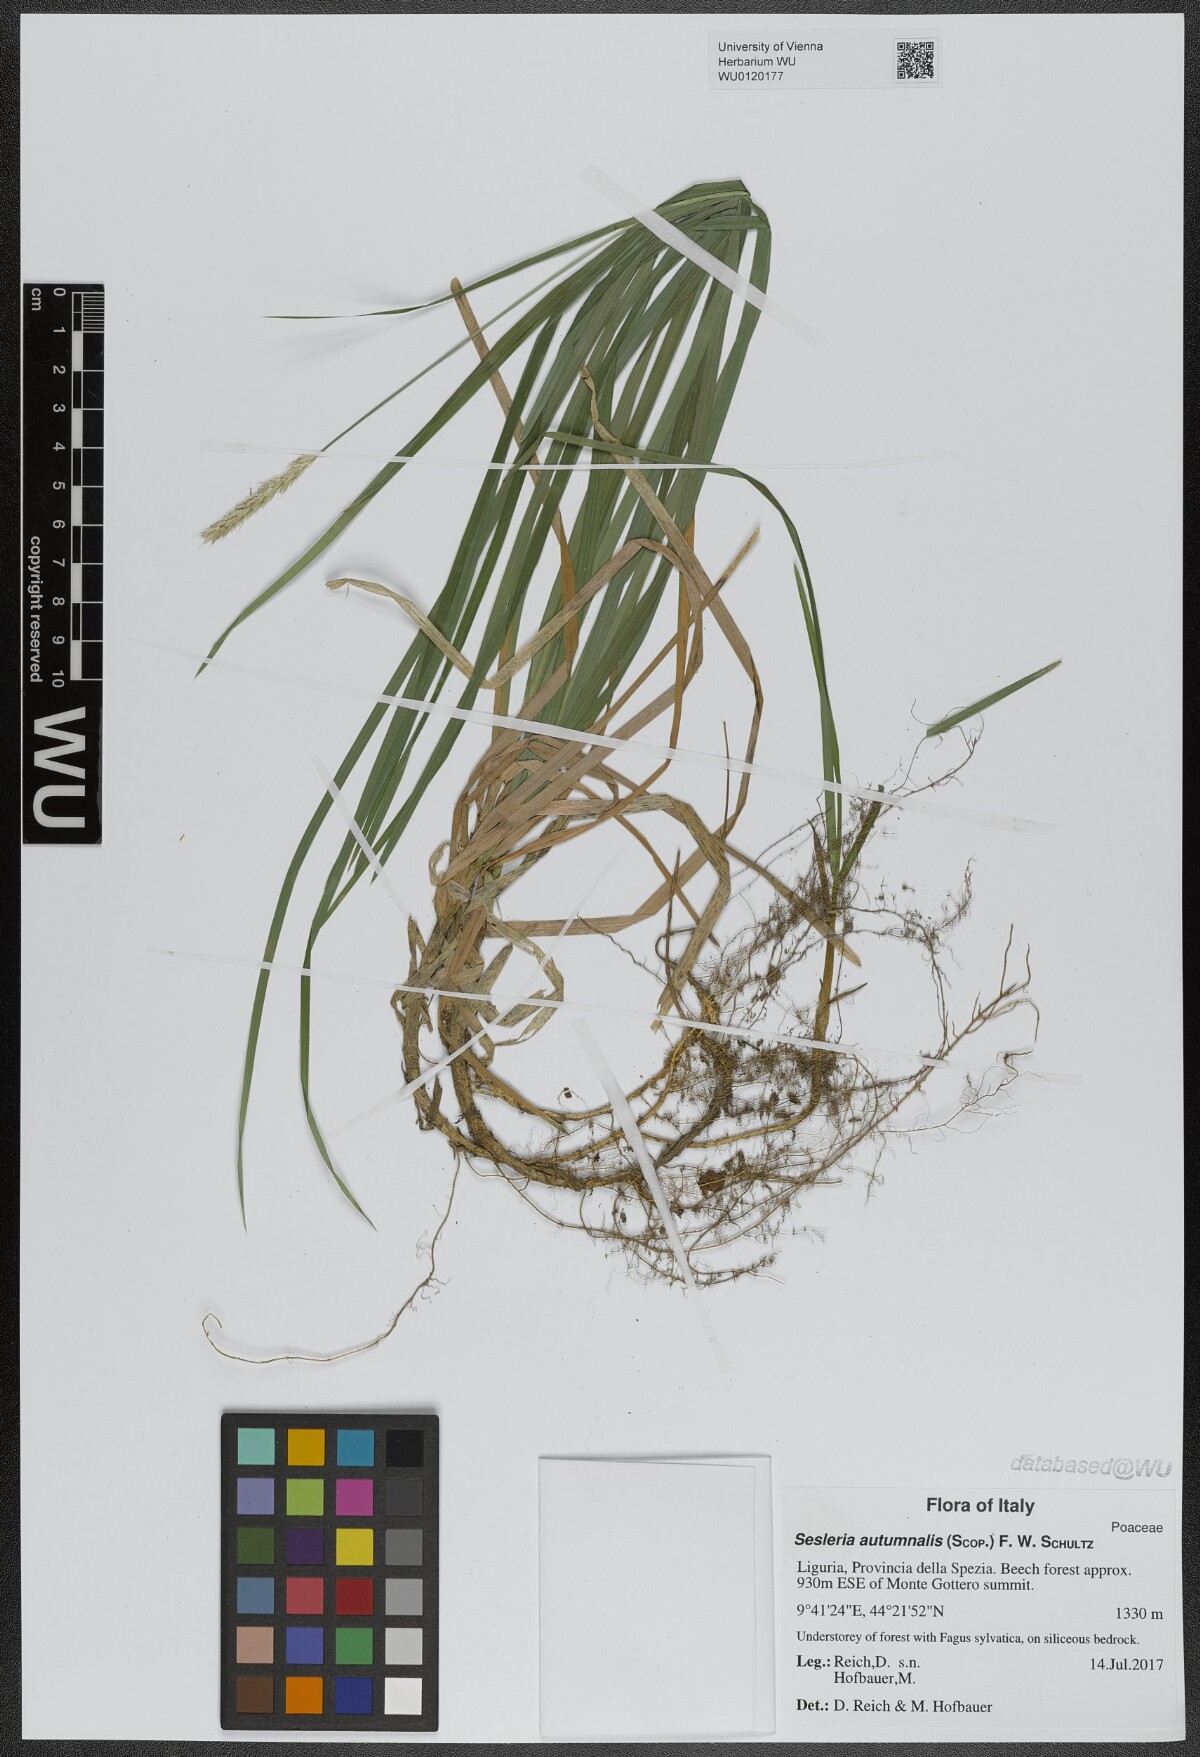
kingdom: Plantae
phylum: Tracheophyta
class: Liliopsida
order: Poales
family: Poaceae
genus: Sesleria
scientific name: Sesleria autumnalis
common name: Autumn moor grass
